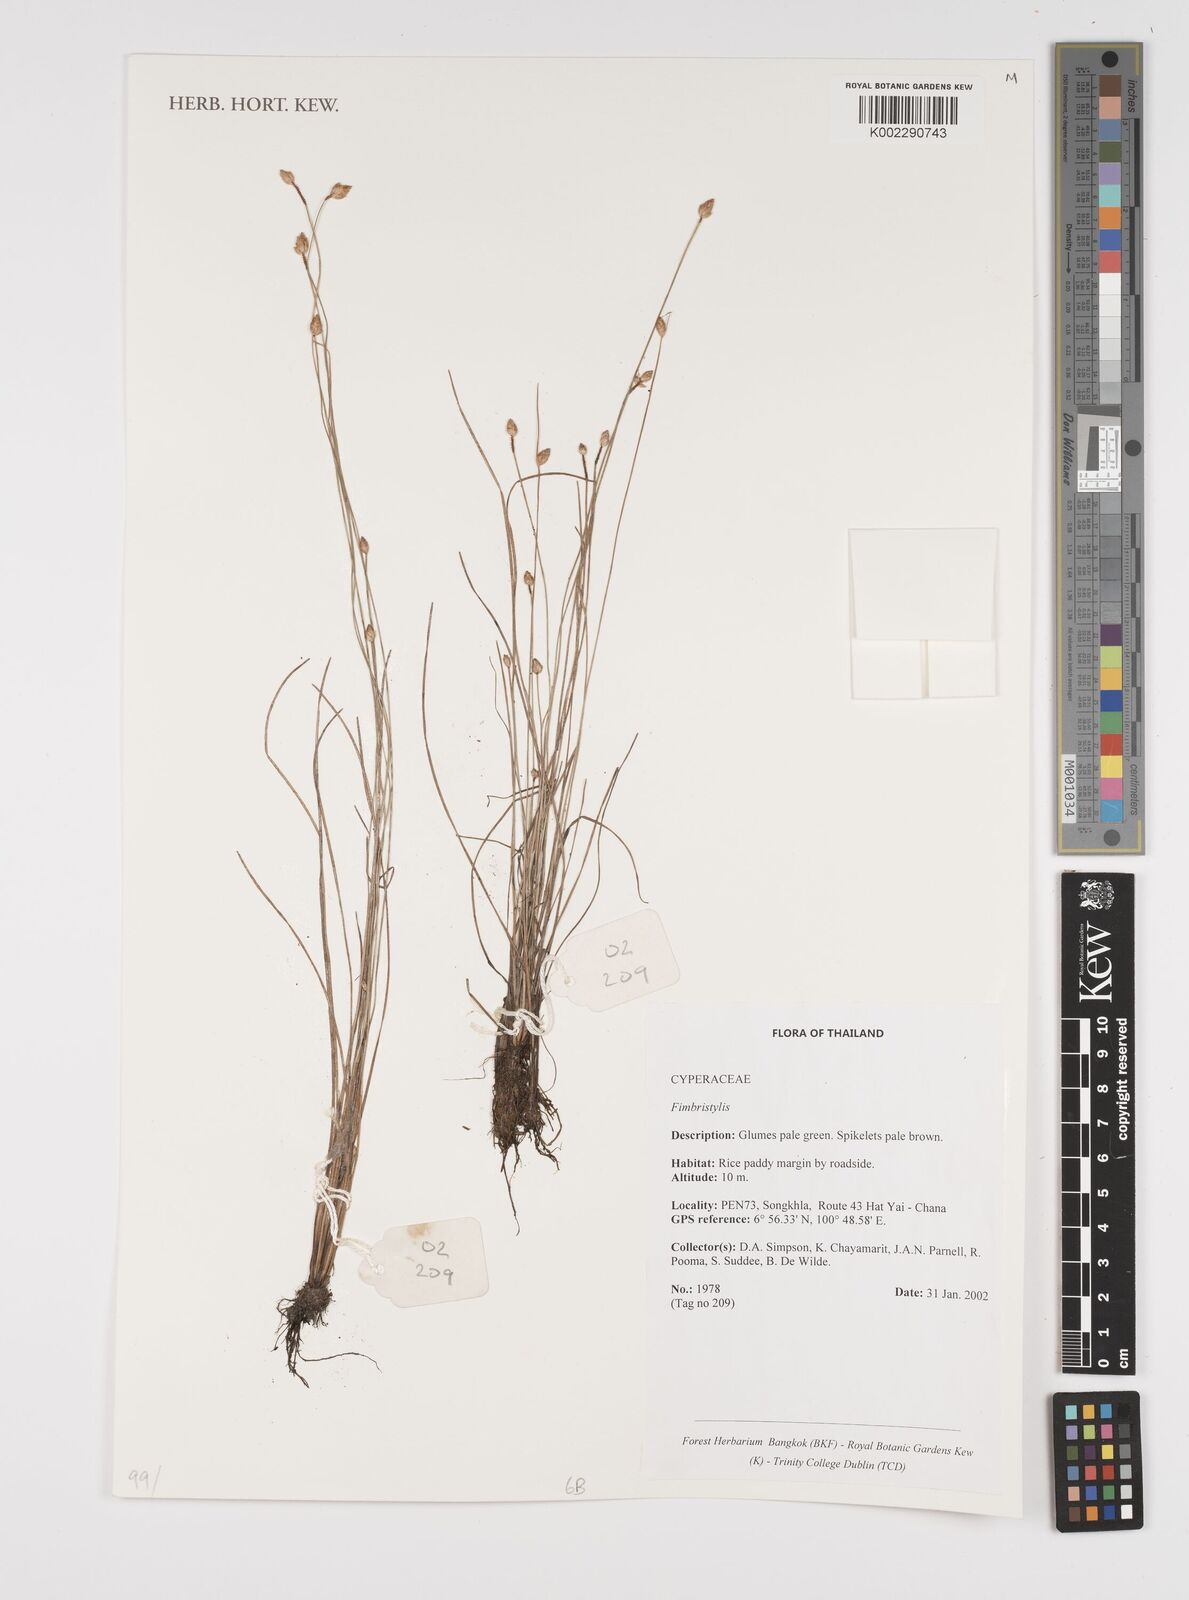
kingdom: Plantae
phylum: Tracheophyta
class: Liliopsida
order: Poales
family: Cyperaceae
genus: Fimbristylis
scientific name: Fimbristylis
